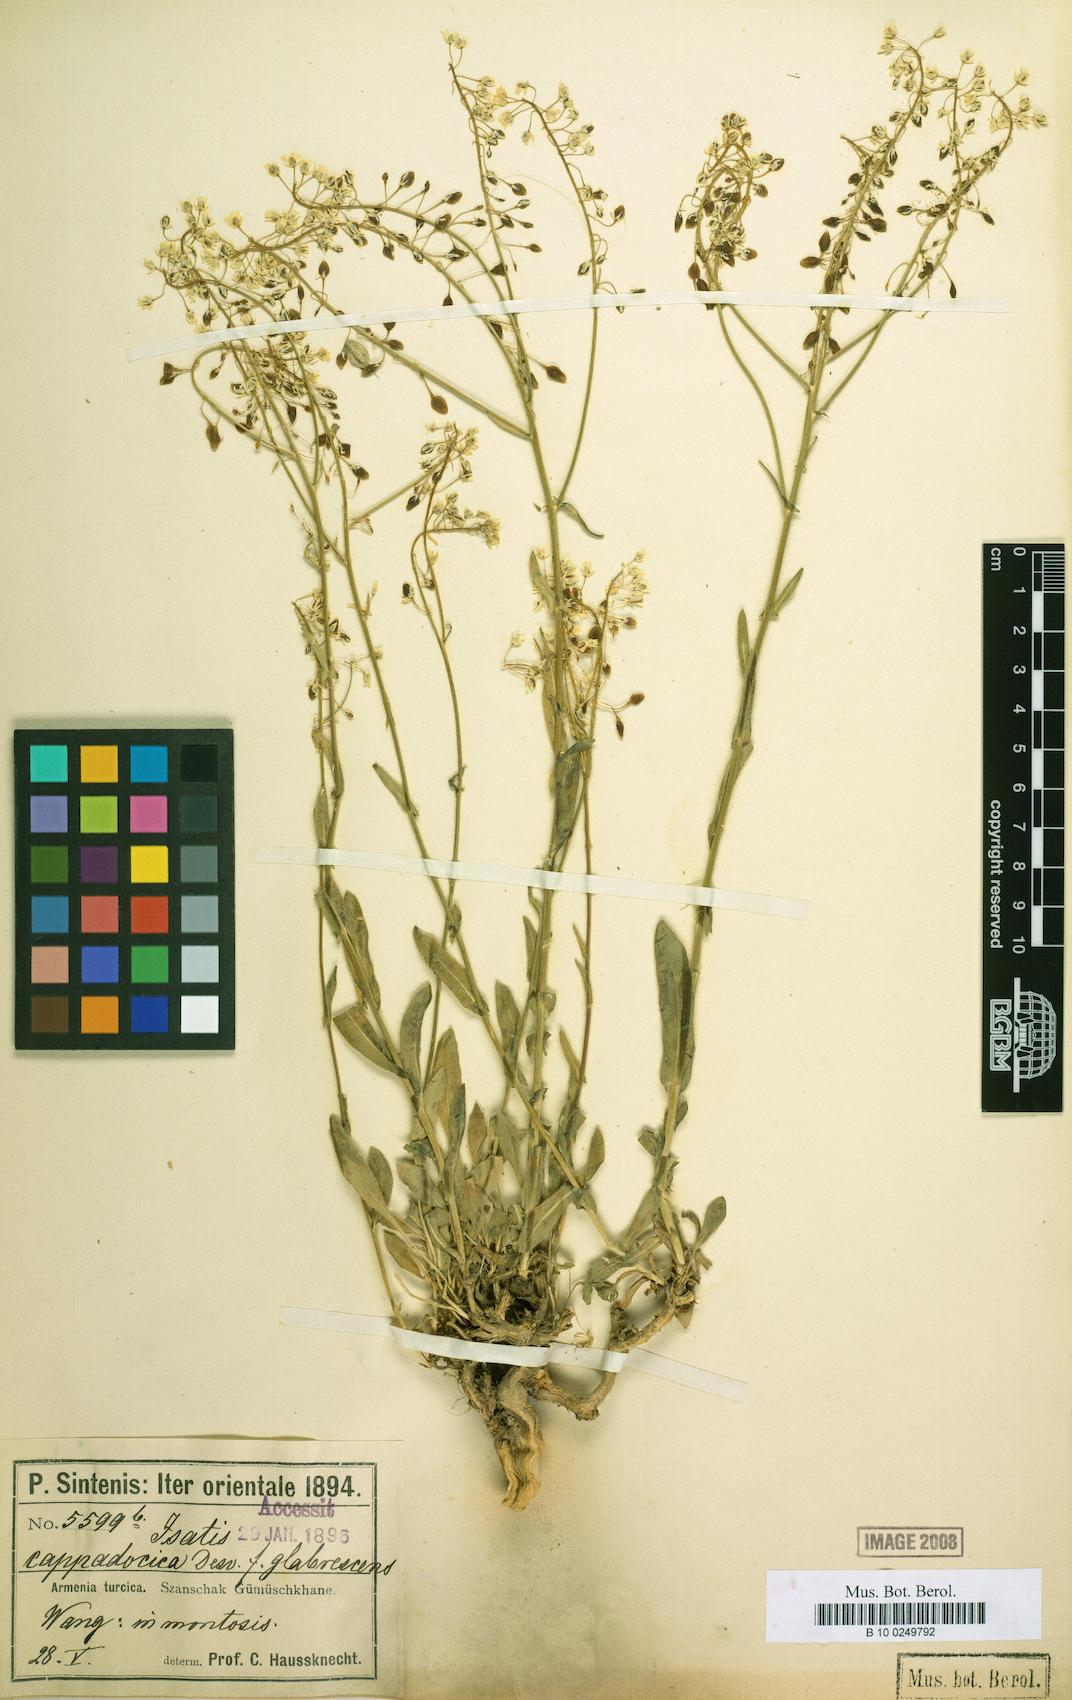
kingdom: Plantae
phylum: Tracheophyta
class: Magnoliopsida
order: Brassicales
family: Brassicaceae
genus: Isatis
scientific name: Isatis cappadocica
